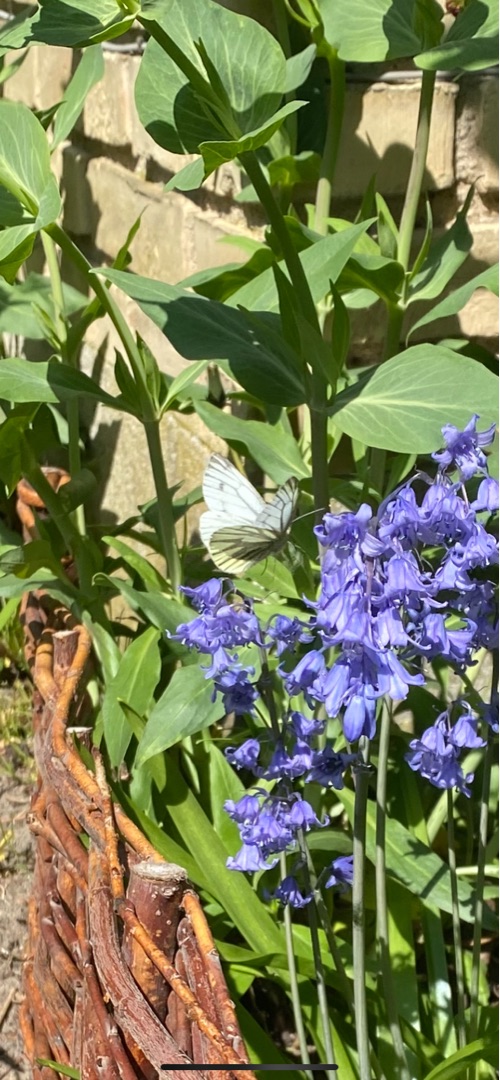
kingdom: Animalia
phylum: Arthropoda
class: Insecta
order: Lepidoptera
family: Pieridae
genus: Pieris
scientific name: Pieris napi
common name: Grønåret kålsommerfugl
